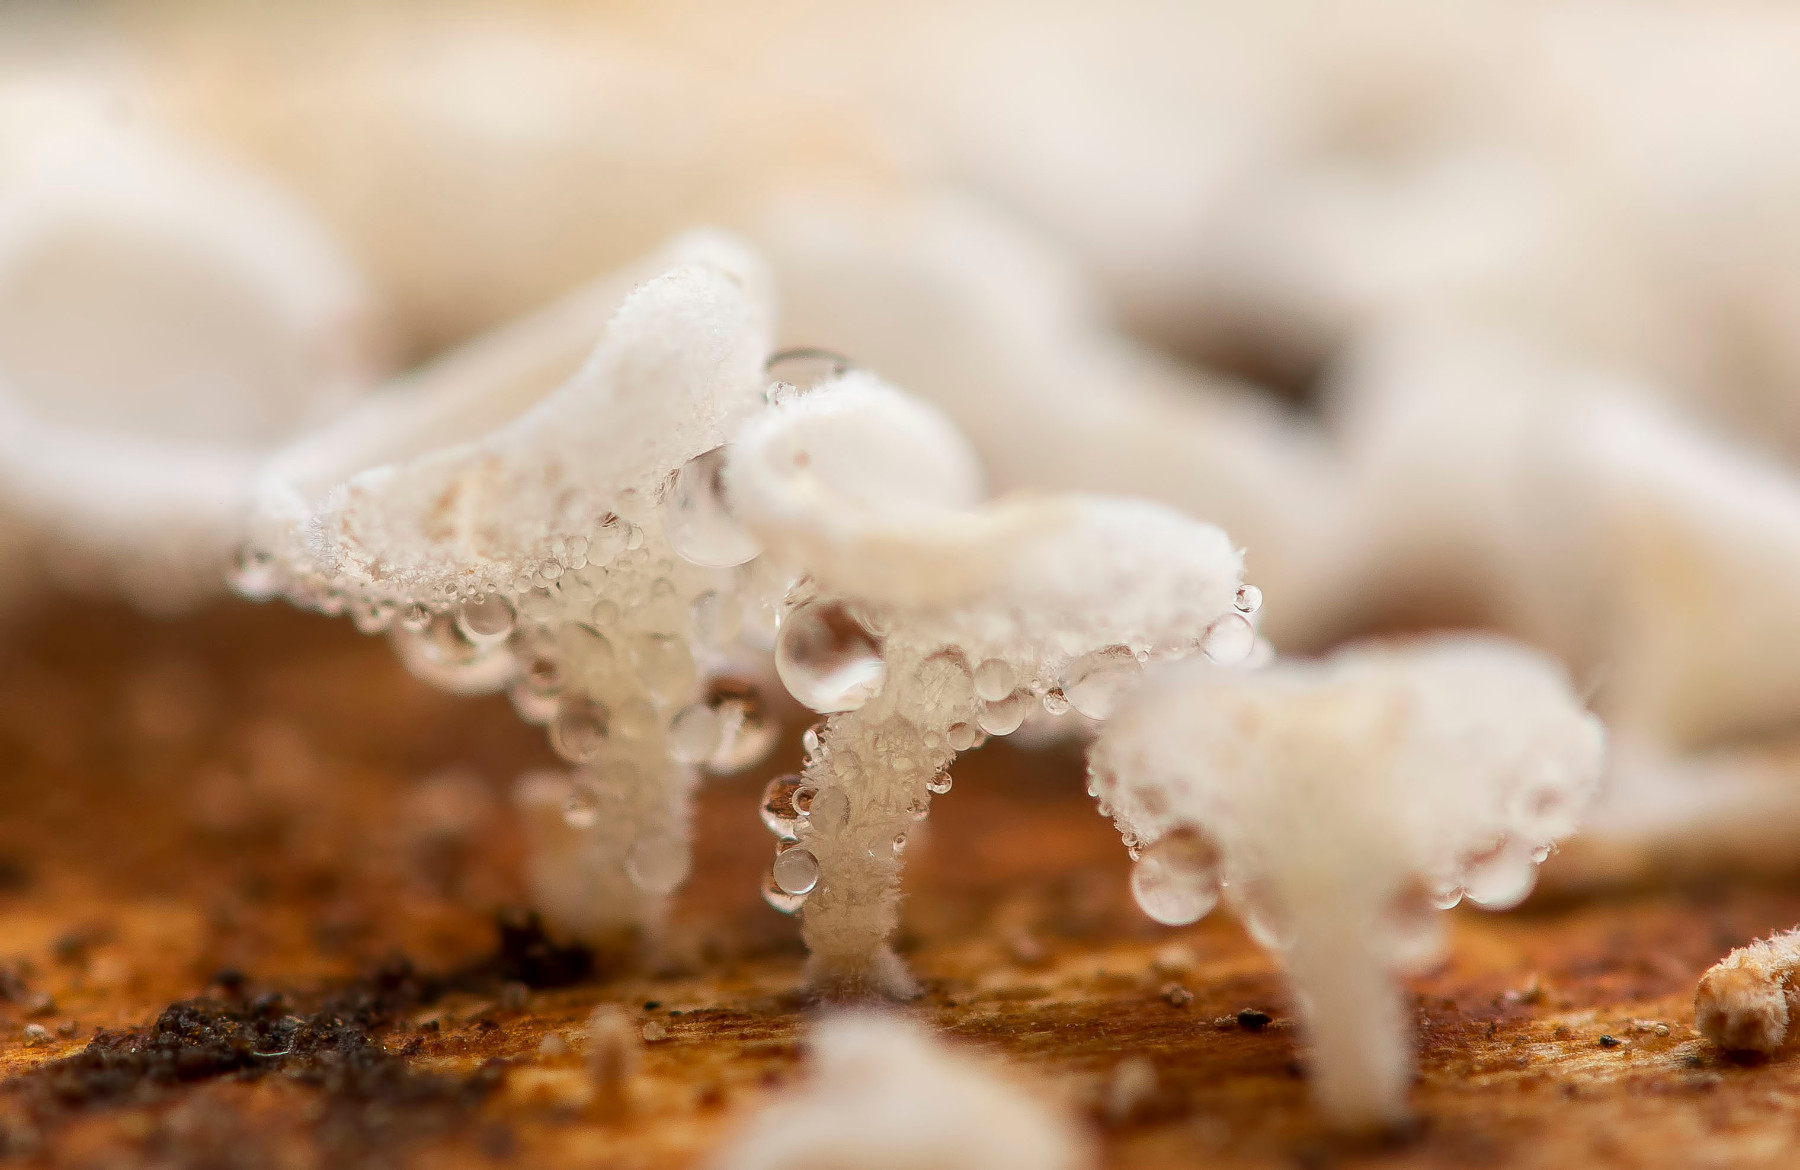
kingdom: Fungi
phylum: Ascomycota
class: Leotiomycetes
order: Helotiales
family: Lachnaceae
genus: Lachnum
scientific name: Lachnum
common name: frynseskive
